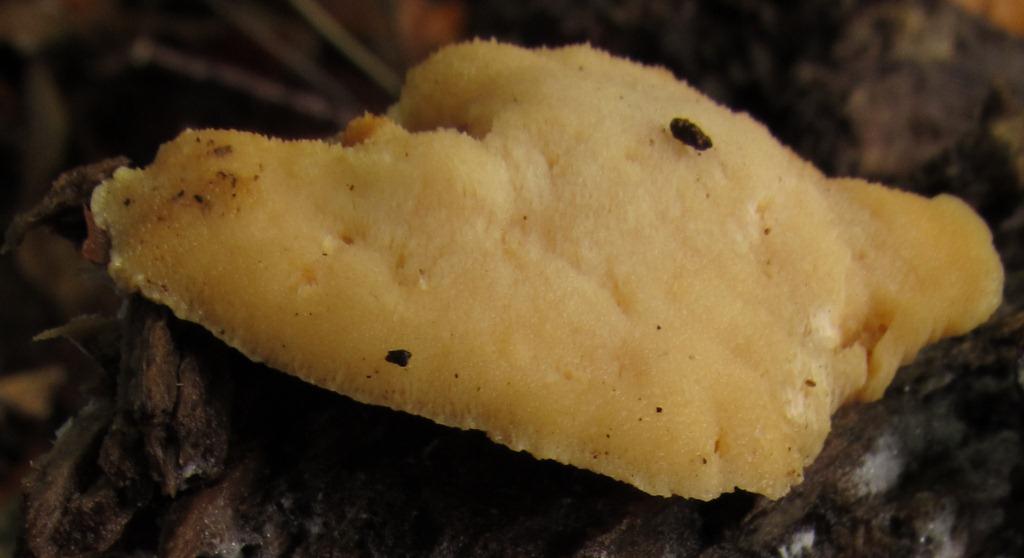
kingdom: Fungi
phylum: Basidiomycota
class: Agaricomycetes
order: Polyporales
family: Steccherinaceae
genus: Antrodiella
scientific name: Antrodiella serpula
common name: gulrandet elastikporesvamp
